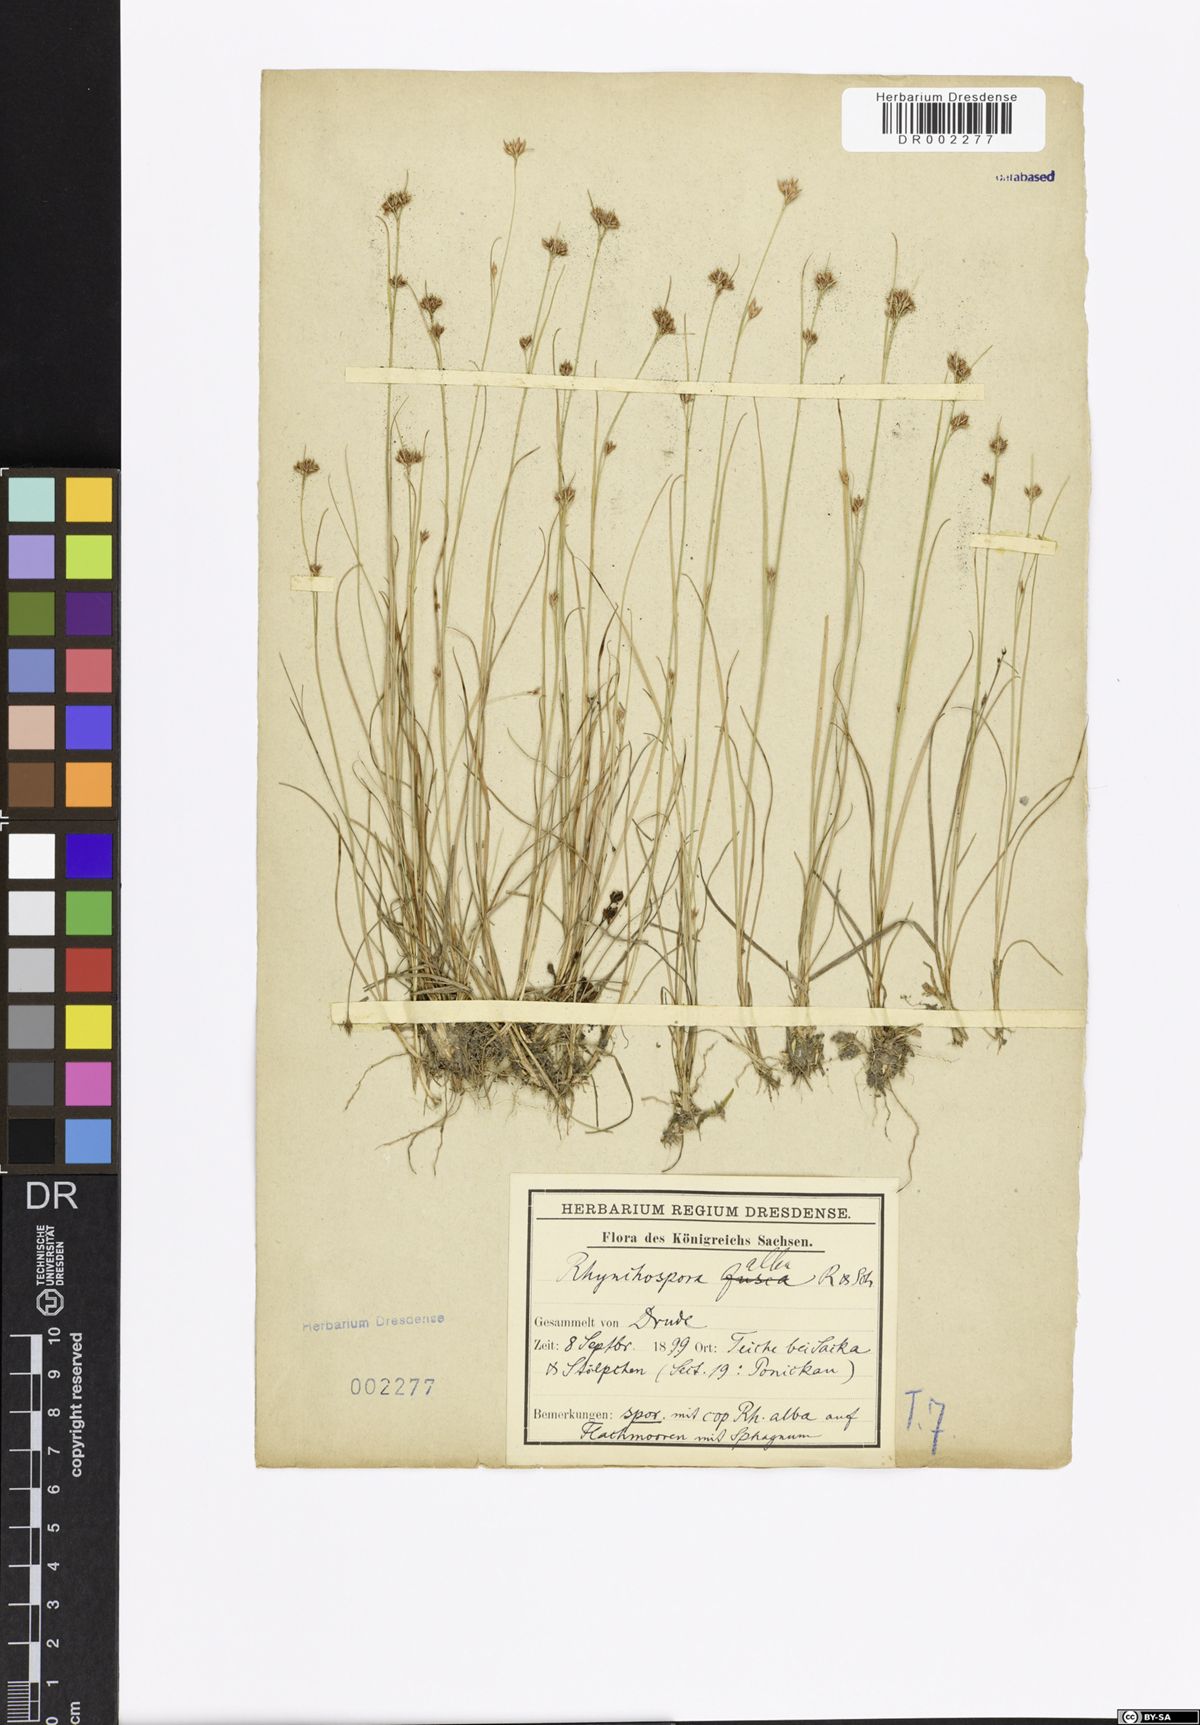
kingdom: Plantae
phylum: Tracheophyta
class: Liliopsida
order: Poales
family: Cyperaceae
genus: Rhynchospora
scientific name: Rhynchospora alba
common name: White beak-sedge
